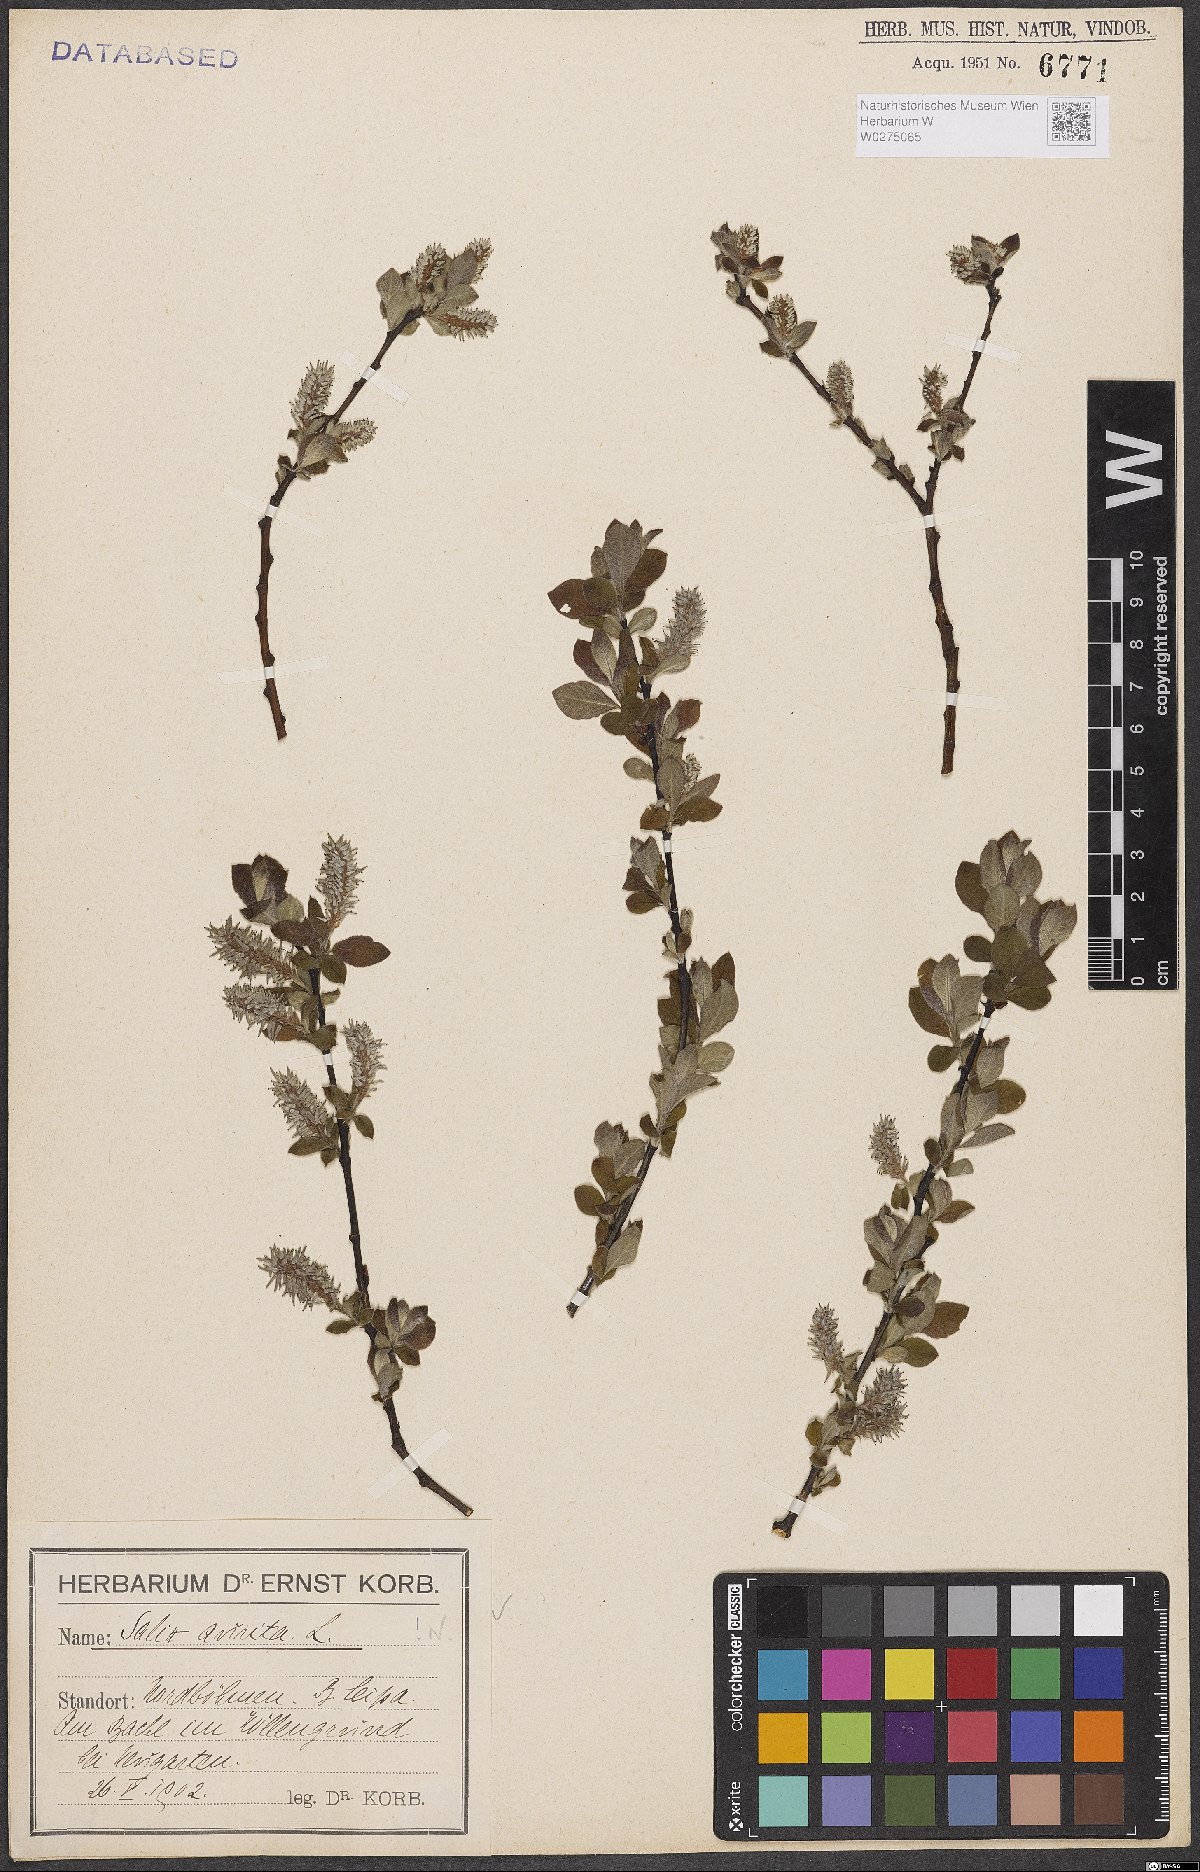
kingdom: Plantae
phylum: Tracheophyta
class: Magnoliopsida
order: Malpighiales
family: Salicaceae
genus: Salix
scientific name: Salix aurita
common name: Eared willow
